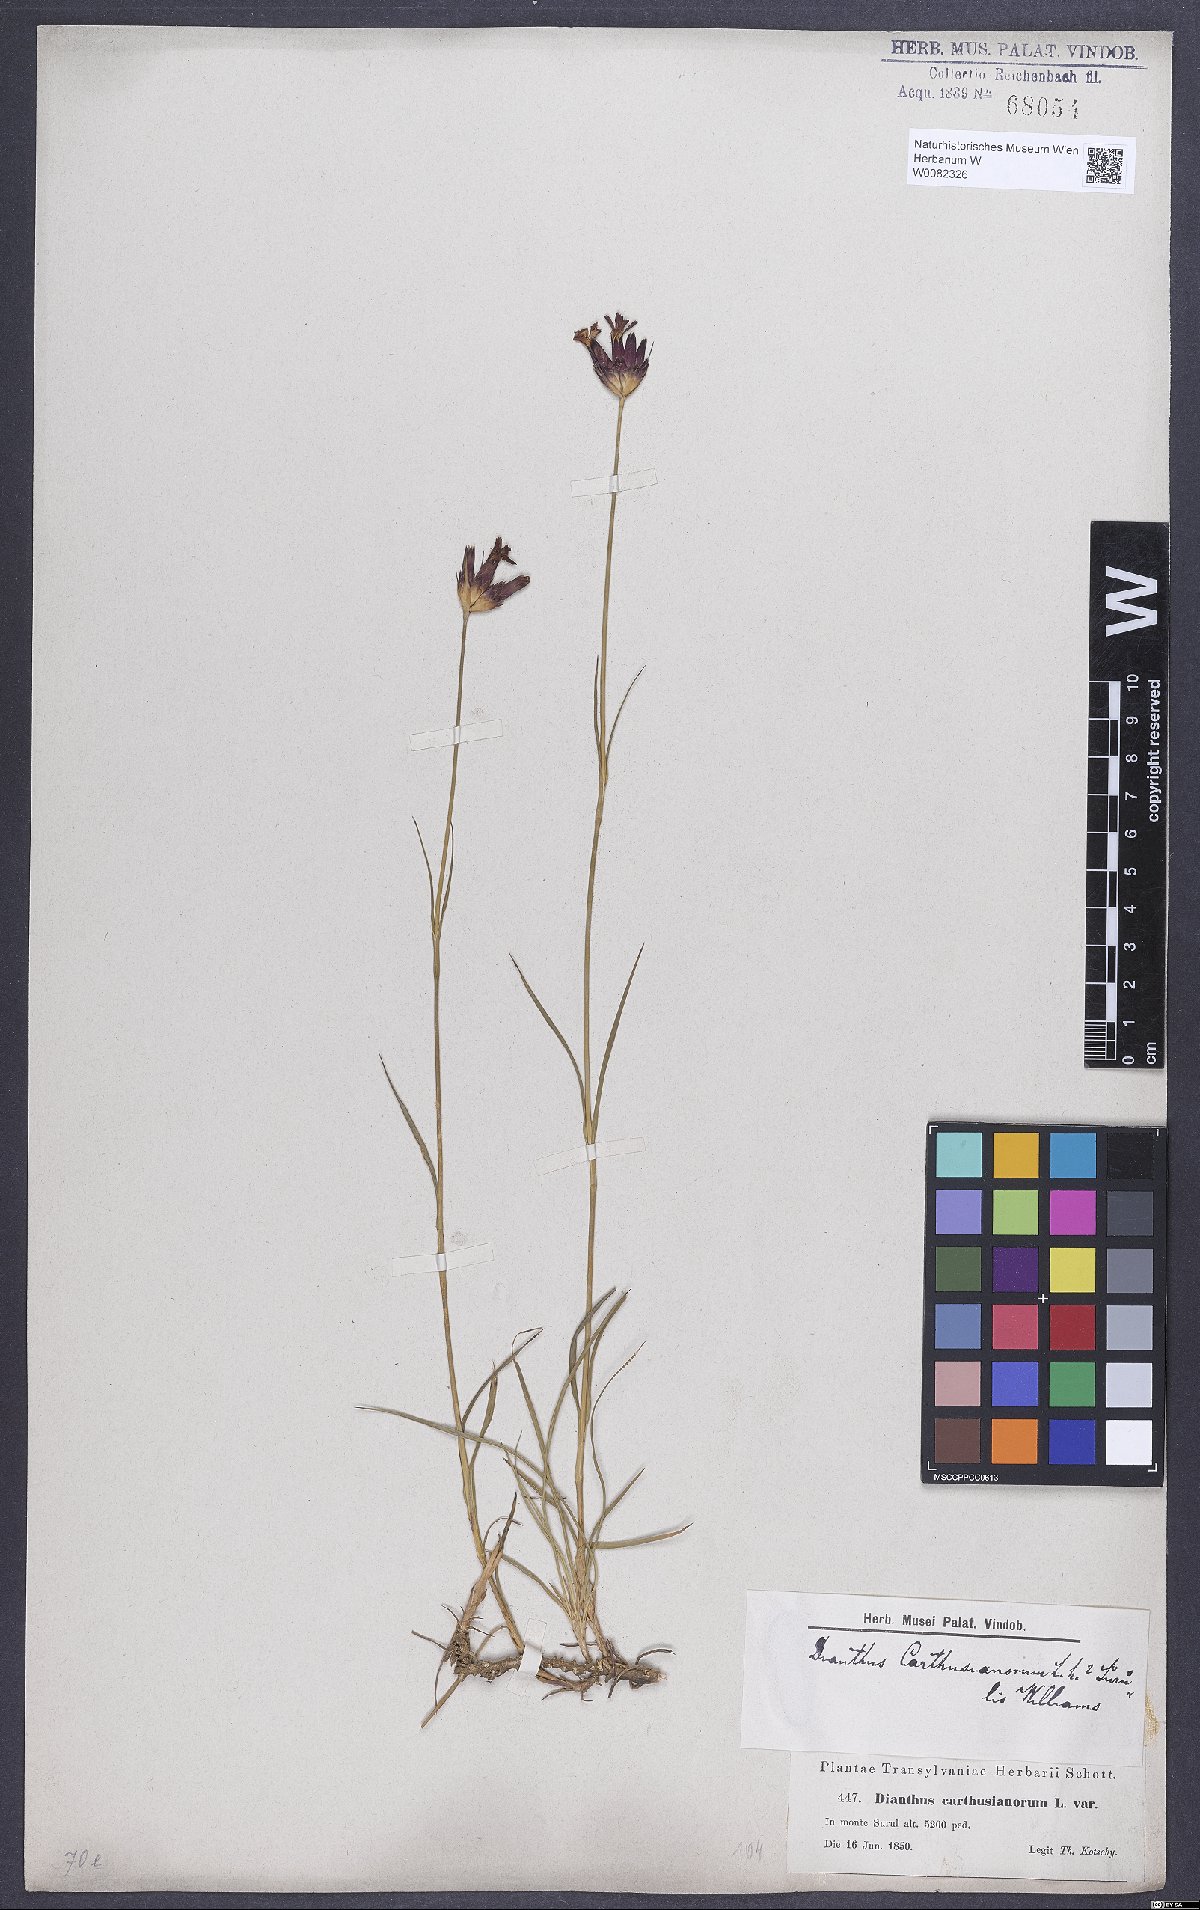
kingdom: Plantae
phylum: Tracheophyta
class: Magnoliopsida
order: Caryophyllales
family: Caryophyllaceae
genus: Dianthus
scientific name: Dianthus carthusianorum
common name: Carthusian pink
